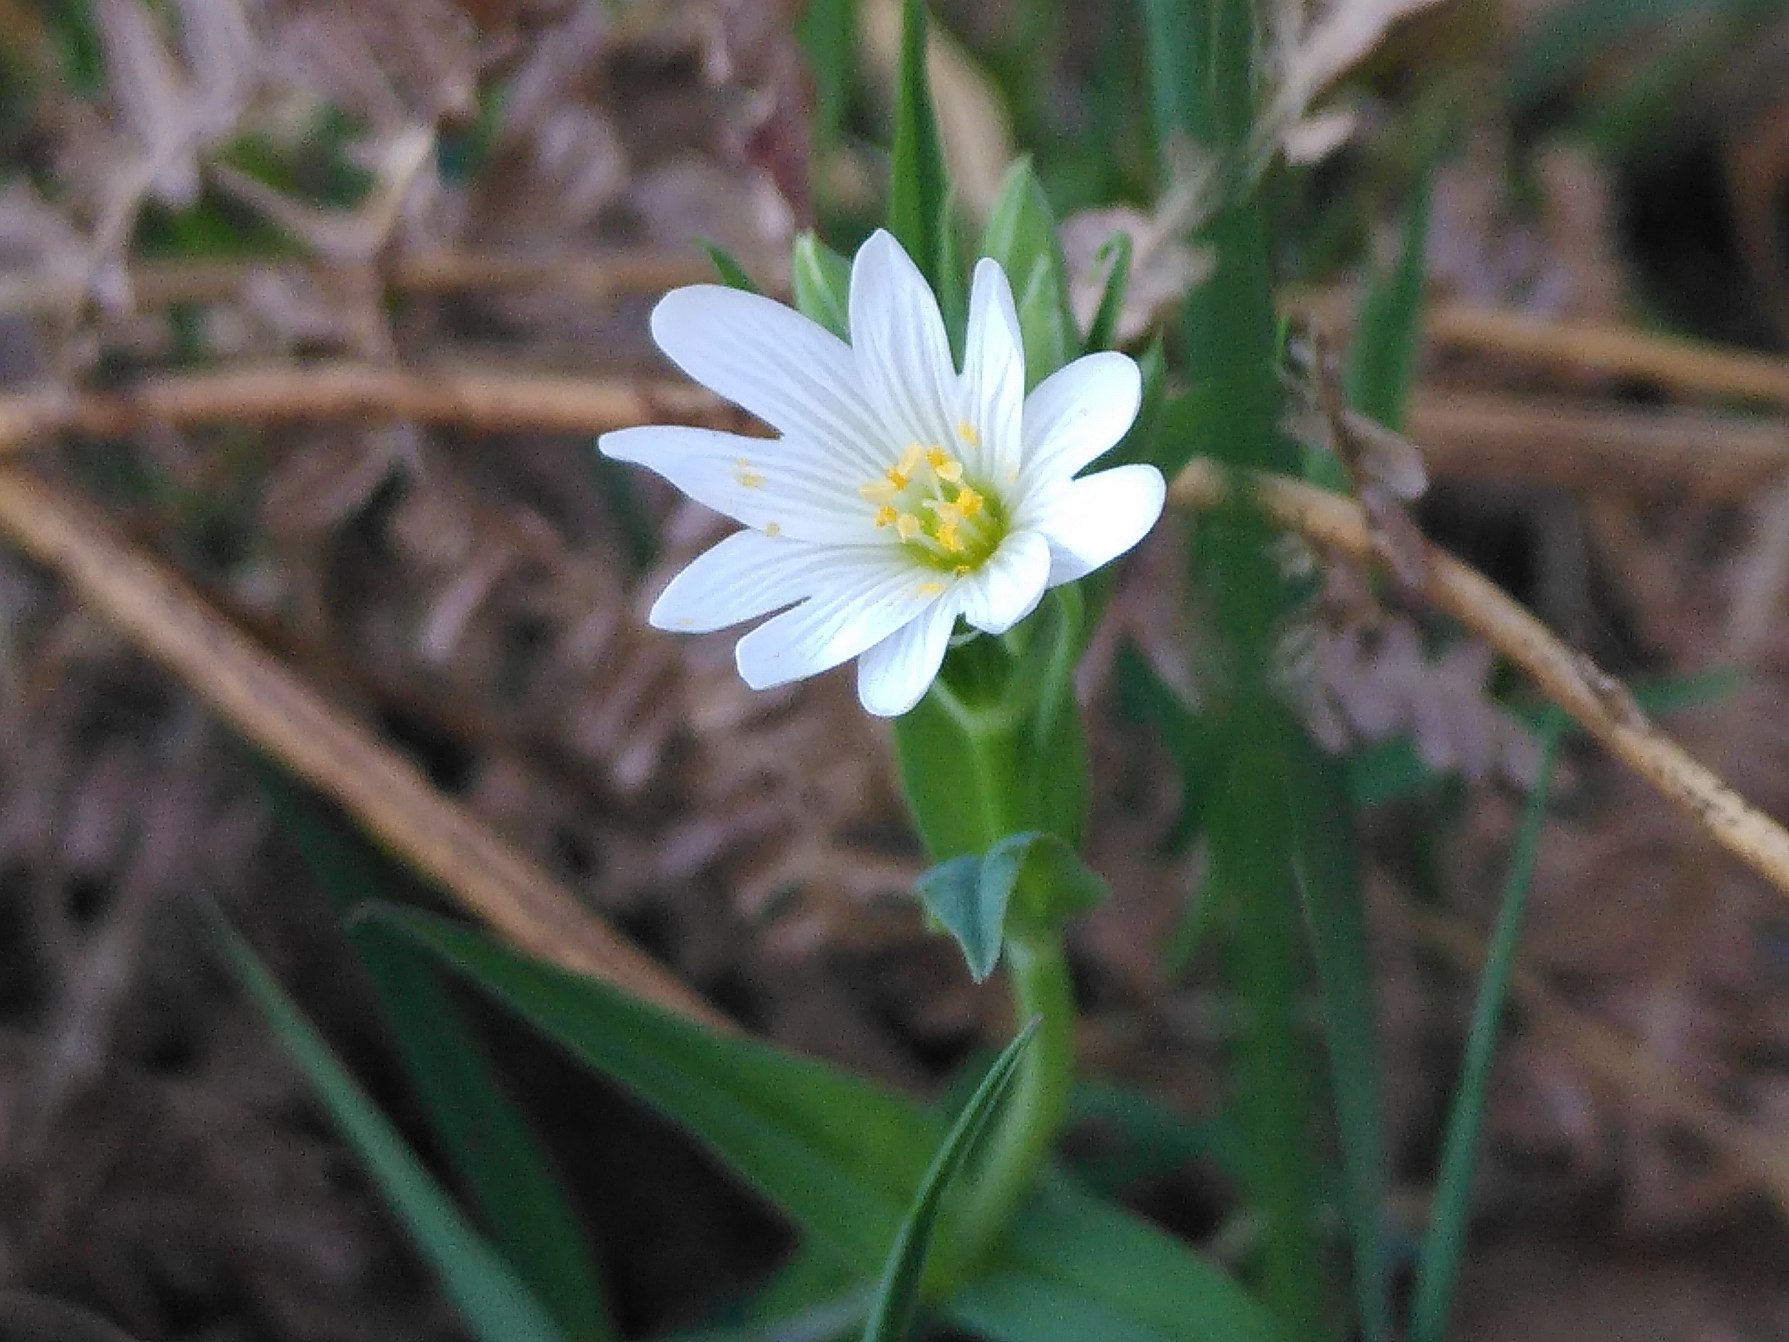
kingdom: Plantae
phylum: Tracheophyta
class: Magnoliopsida
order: Caryophyllales
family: Caryophyllaceae
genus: Rabelera
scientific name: Rabelera holostea
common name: Stor fladstjerne
